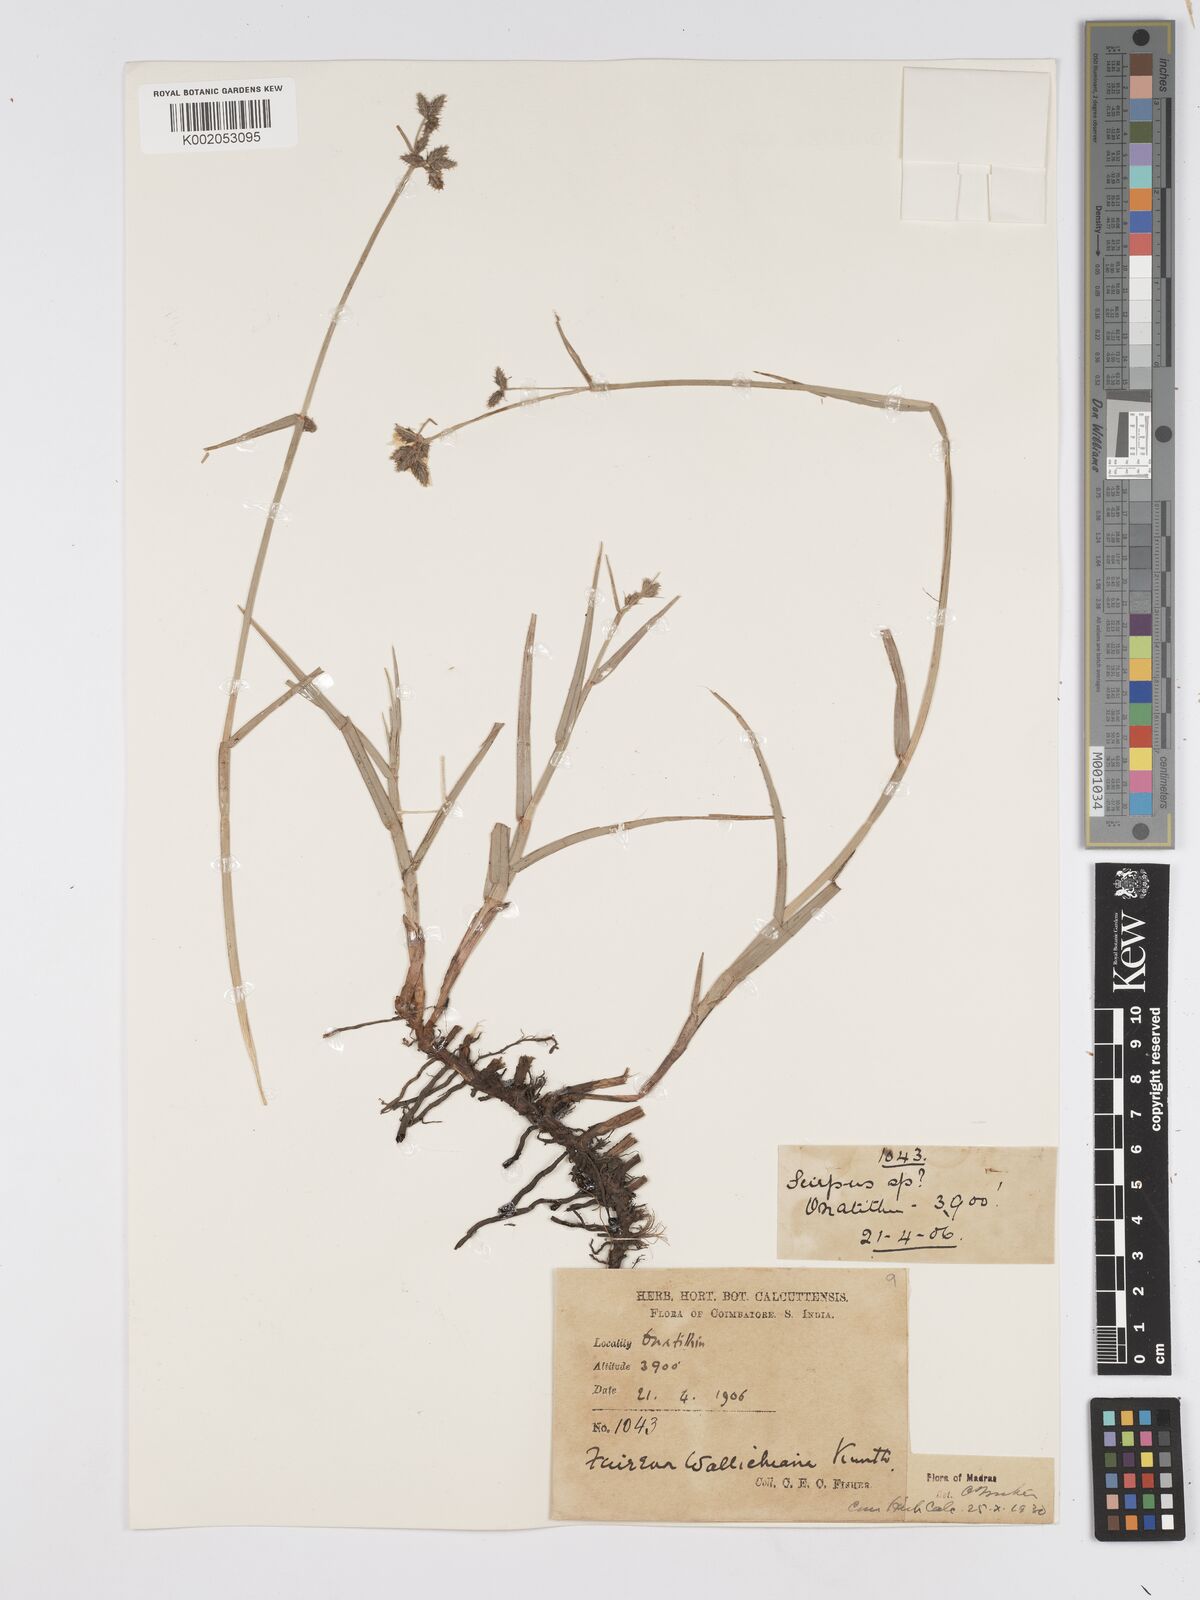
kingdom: Plantae
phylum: Tracheophyta
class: Liliopsida
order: Poales
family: Cyperaceae
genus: Fuirena
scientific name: Fuirena cuspidata
